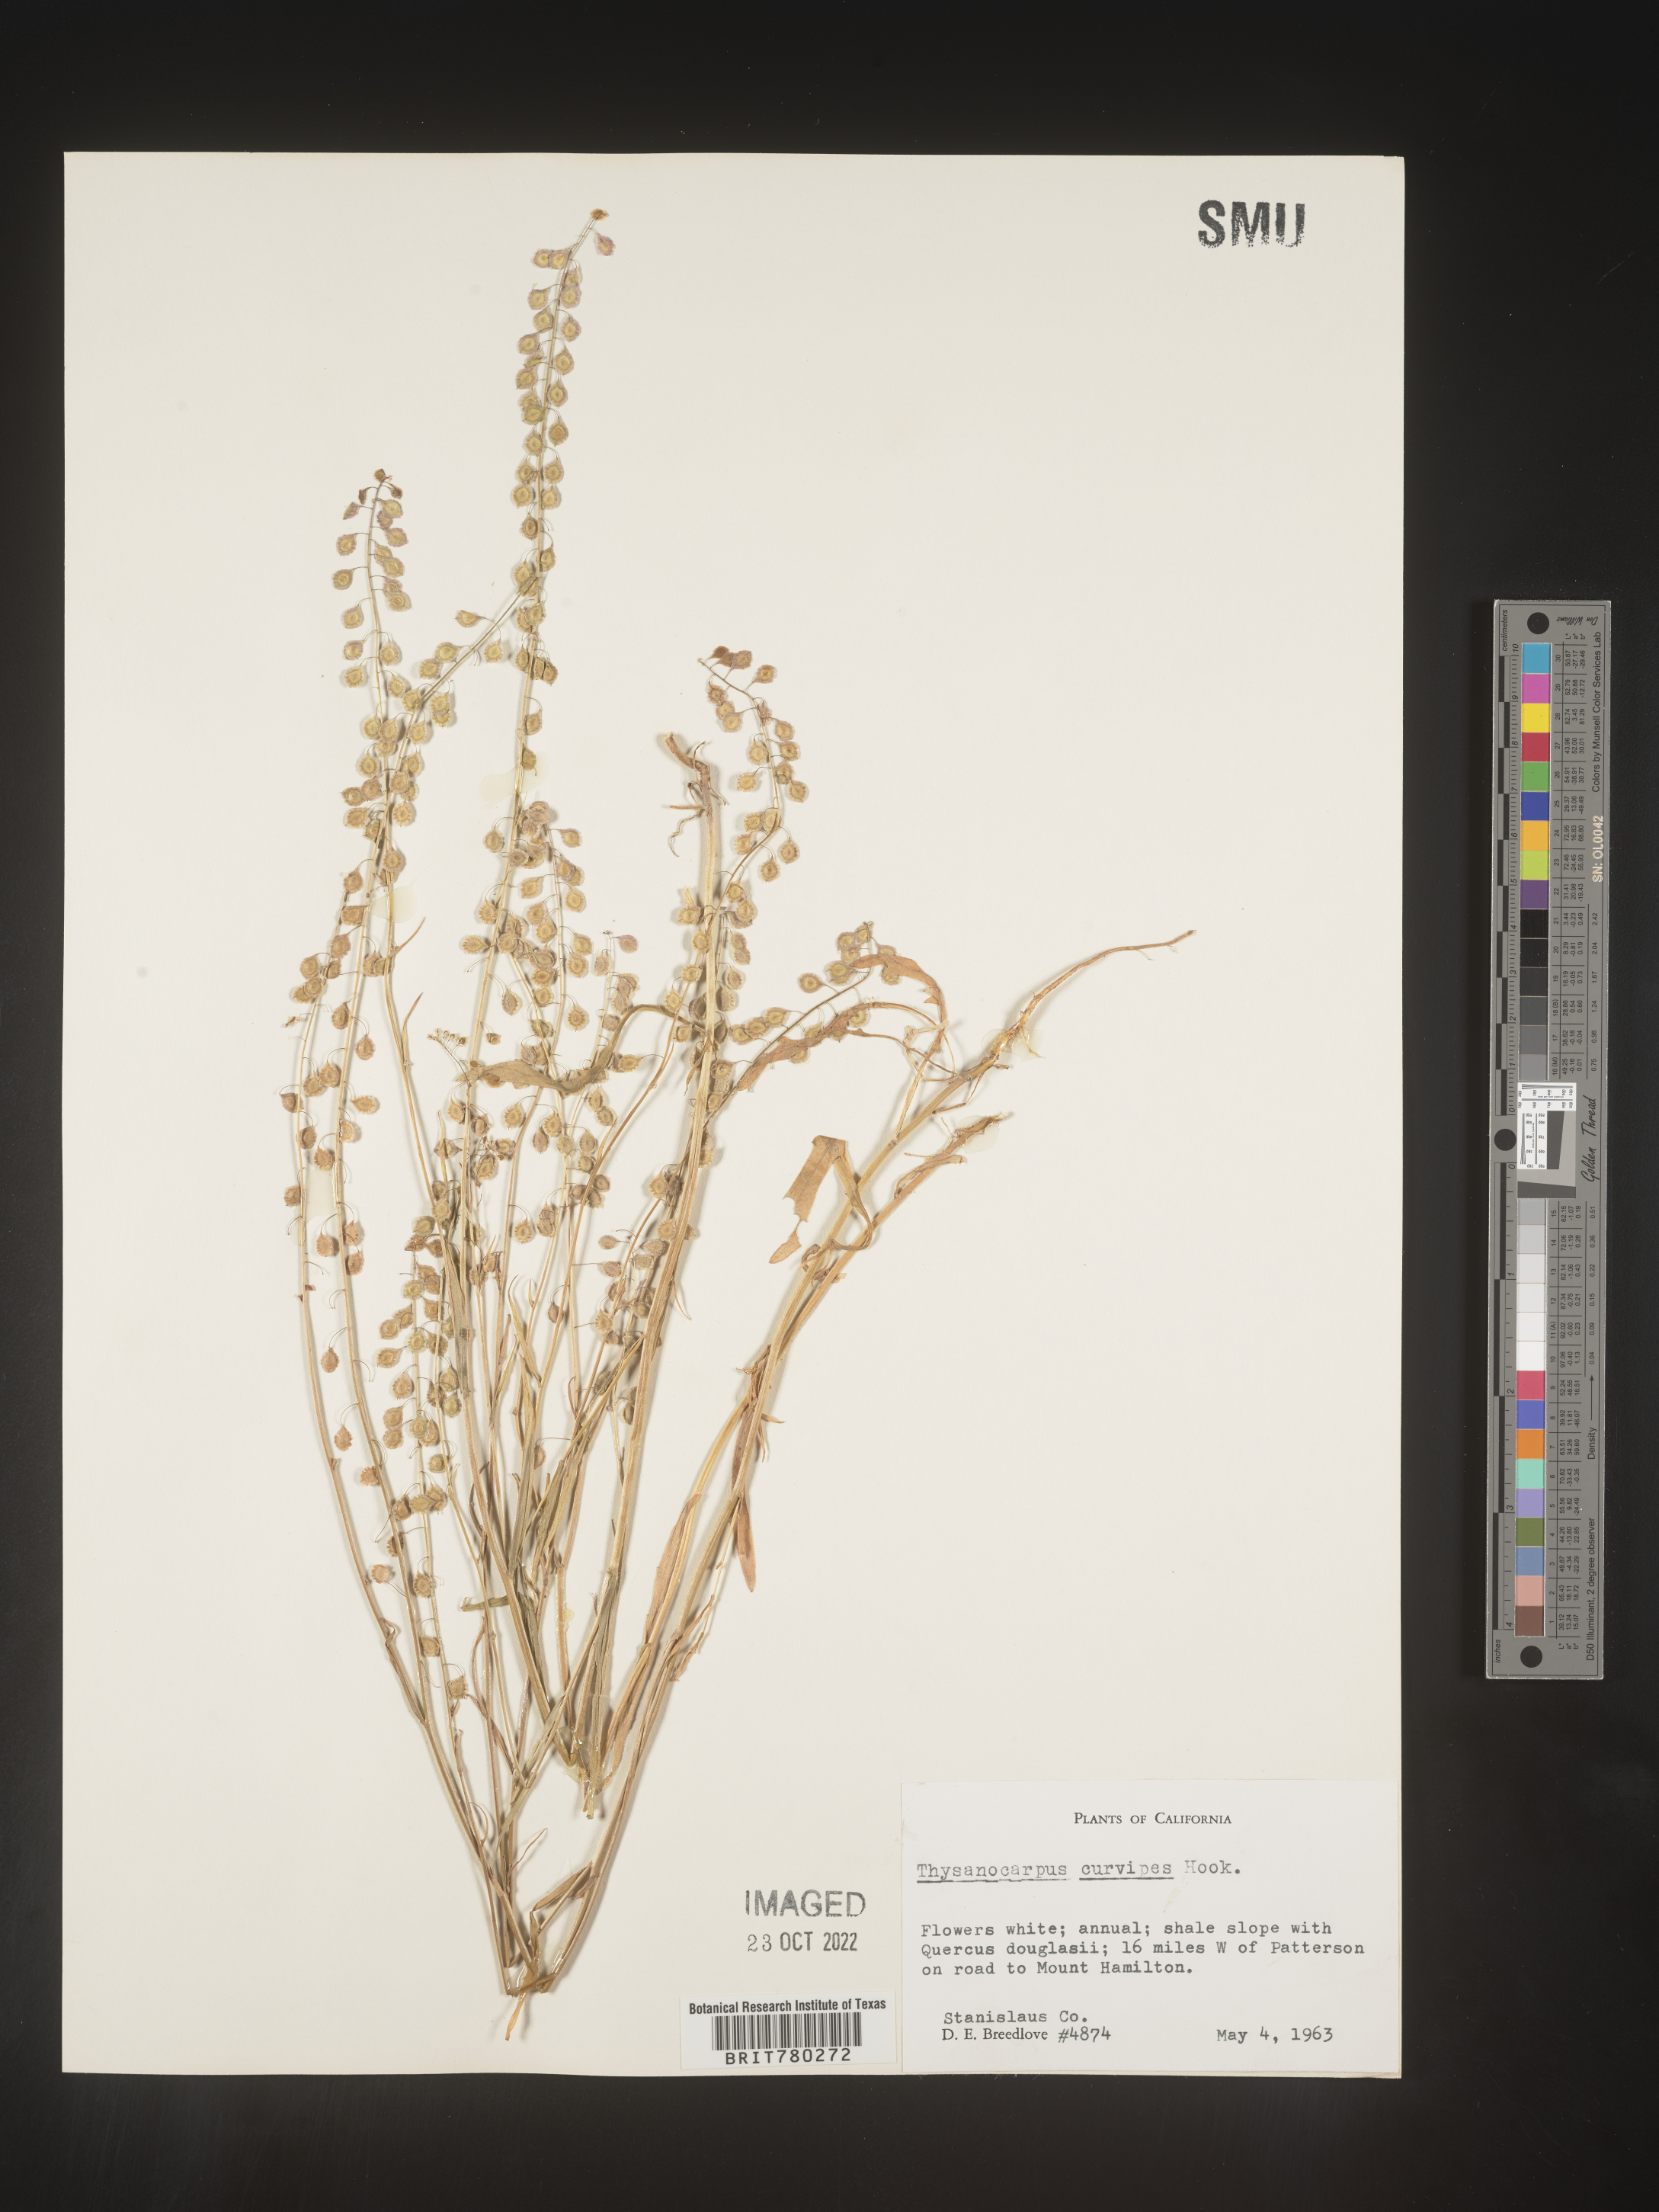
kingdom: Plantae
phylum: Tracheophyta
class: Magnoliopsida
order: Brassicales
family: Brassicaceae
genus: Thysanocarpus
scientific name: Thysanocarpus
